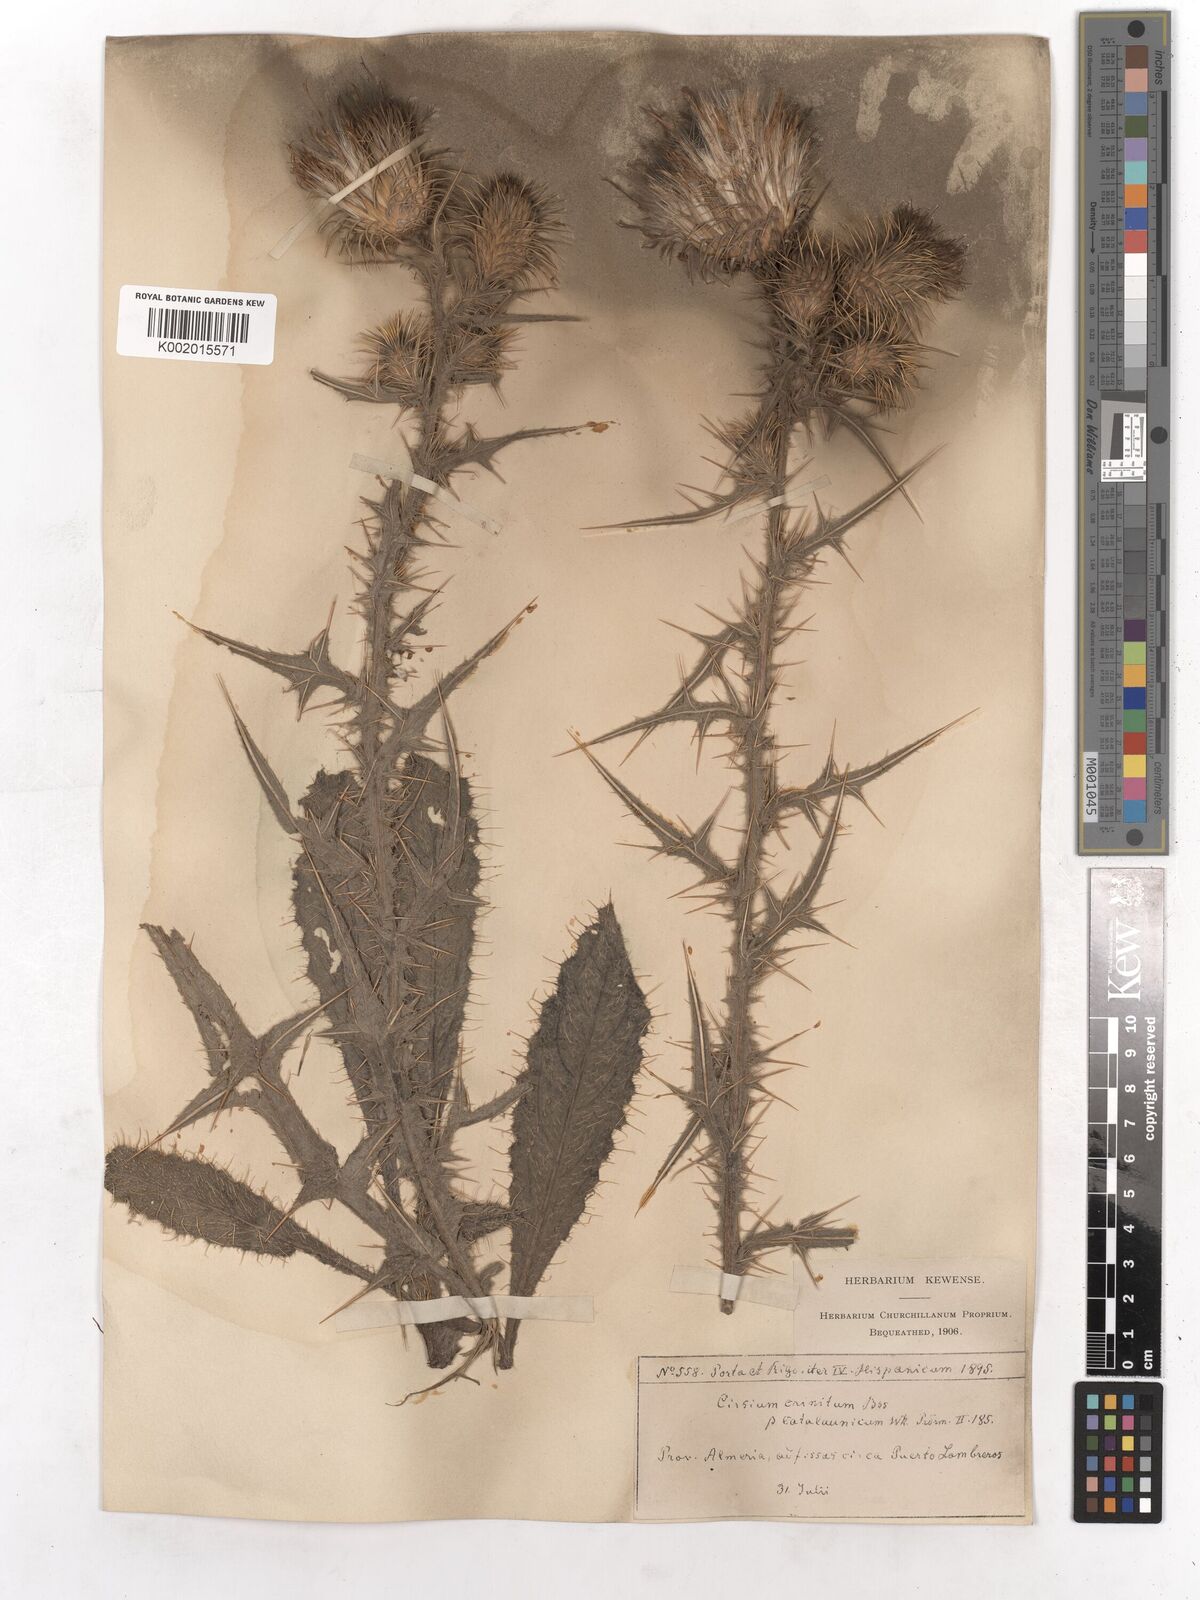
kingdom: Plantae
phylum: Tracheophyta
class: Magnoliopsida
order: Asterales
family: Asteraceae
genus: Cirsium
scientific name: Cirsium vulgare
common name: Bull thistle
